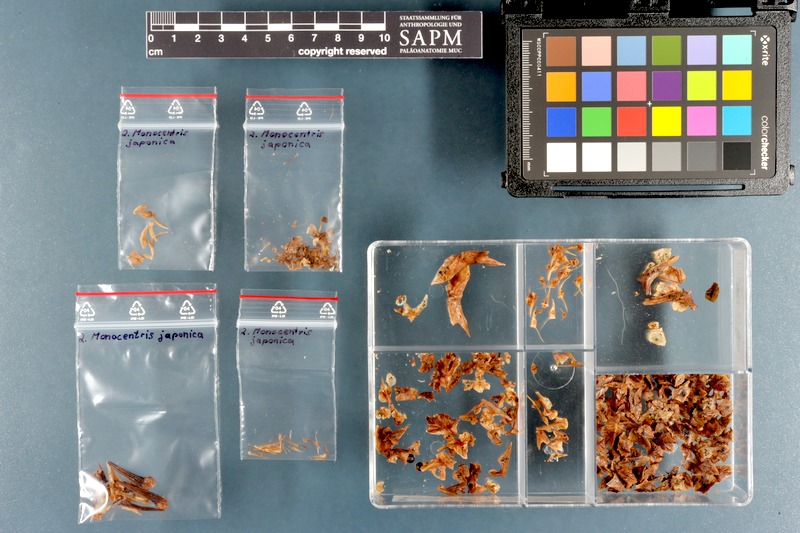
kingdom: Animalia
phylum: Chordata
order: Beryciformes
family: Monocentridae
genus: Monocentris
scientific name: Monocentris japonica
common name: Pineconefish
